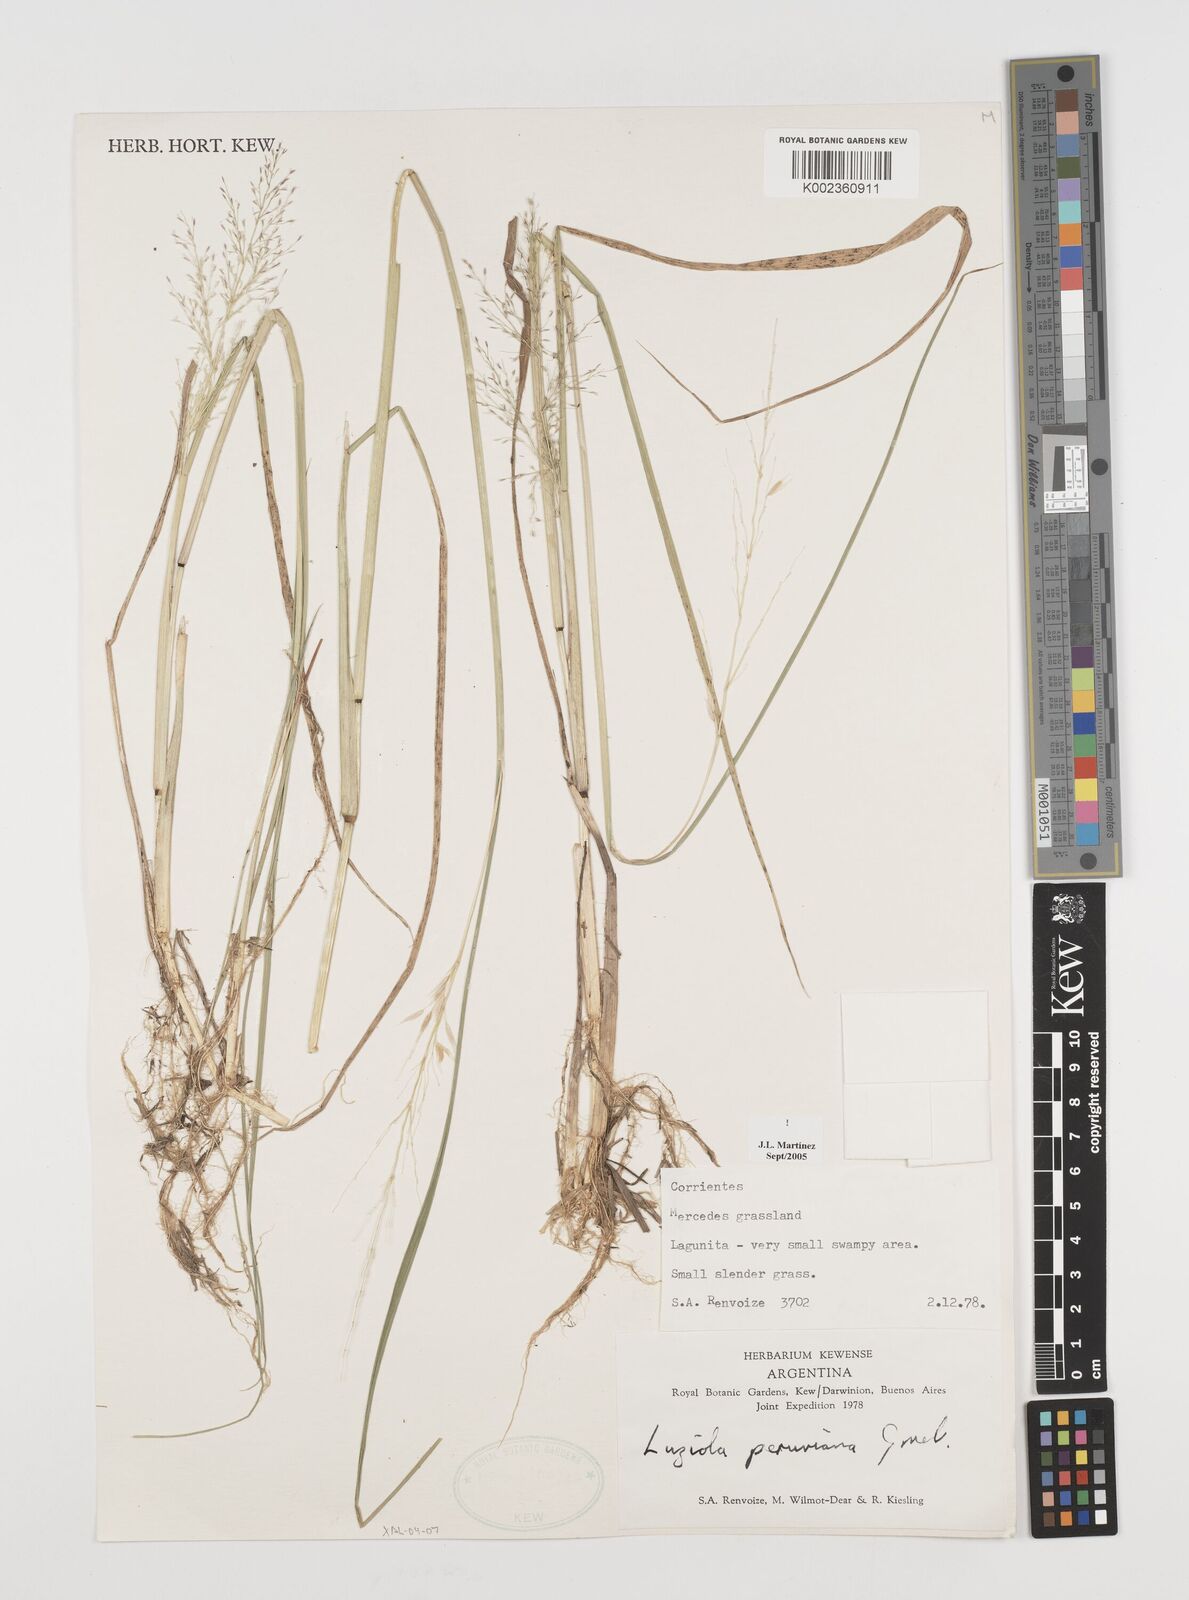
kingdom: Plantae
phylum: Tracheophyta
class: Liliopsida
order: Poales
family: Poaceae
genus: Luziola
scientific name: Luziola peruviana
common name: Peruvian watergrass
